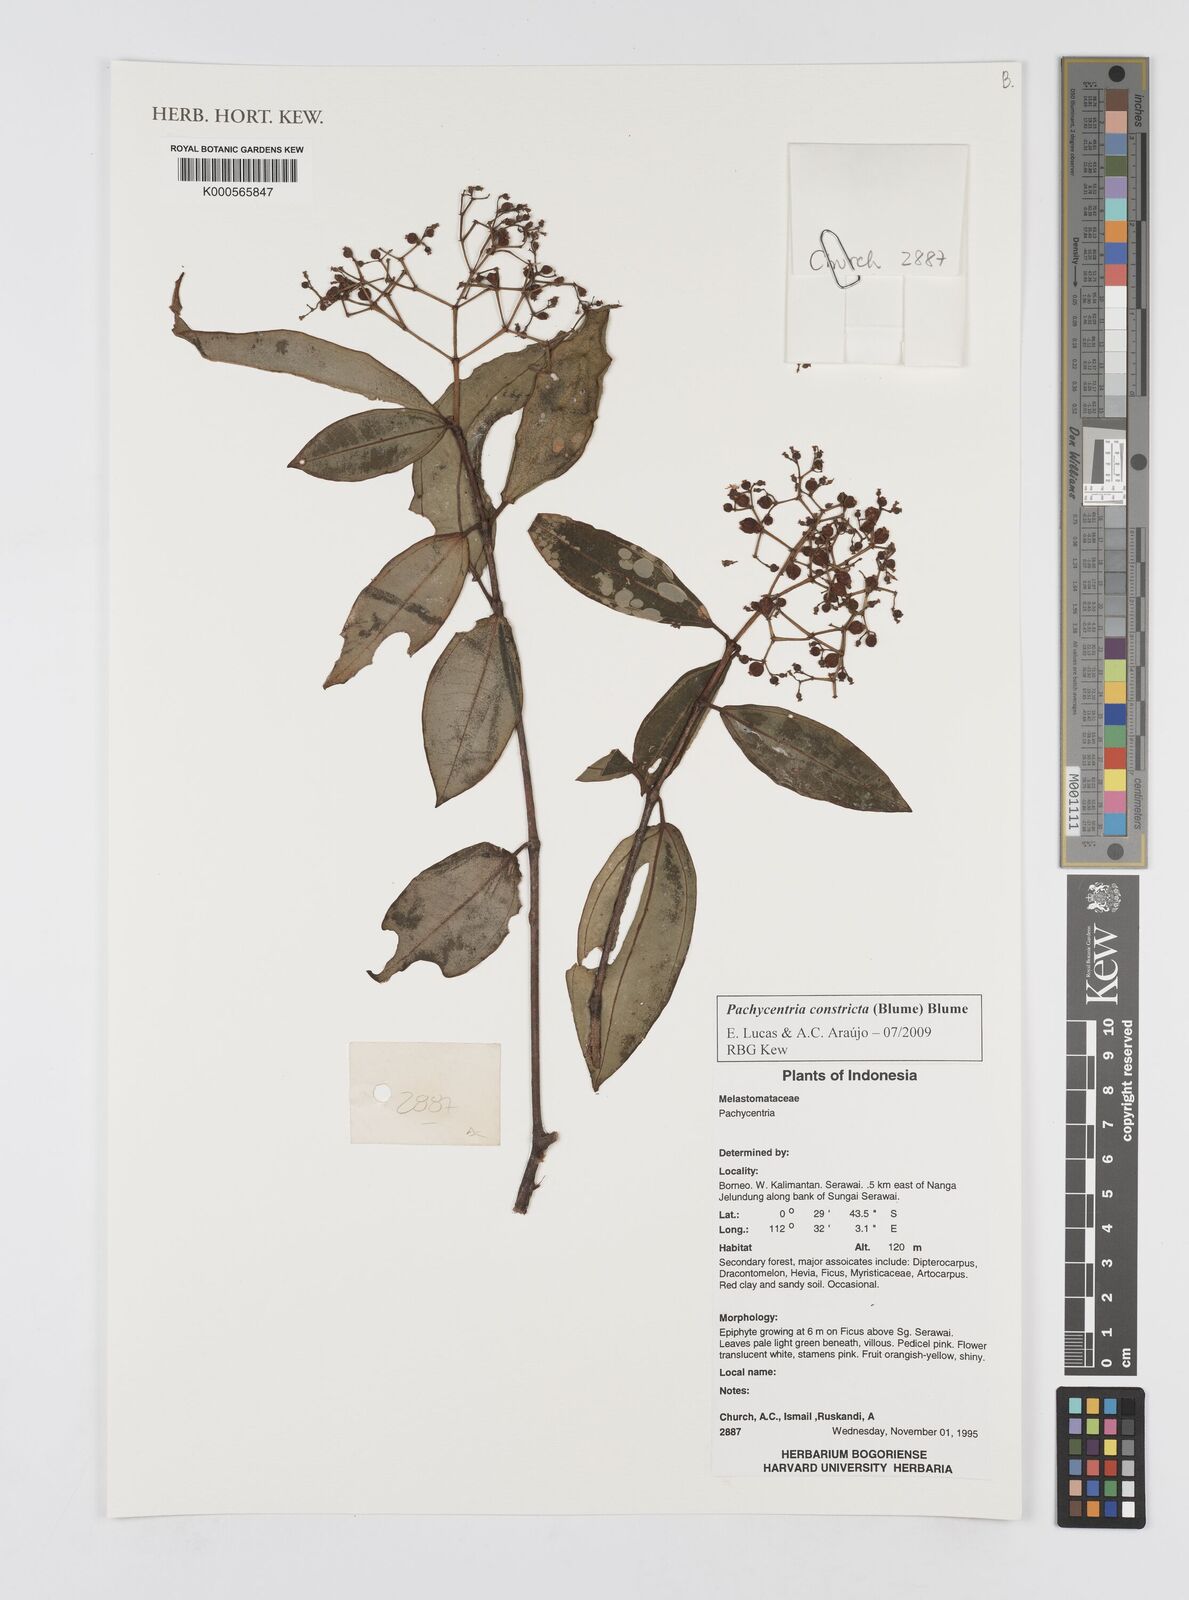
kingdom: Plantae
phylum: Tracheophyta
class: Magnoliopsida
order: Myrtales
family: Melastomataceae
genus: Pachycentria
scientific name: Pachycentria constricta
